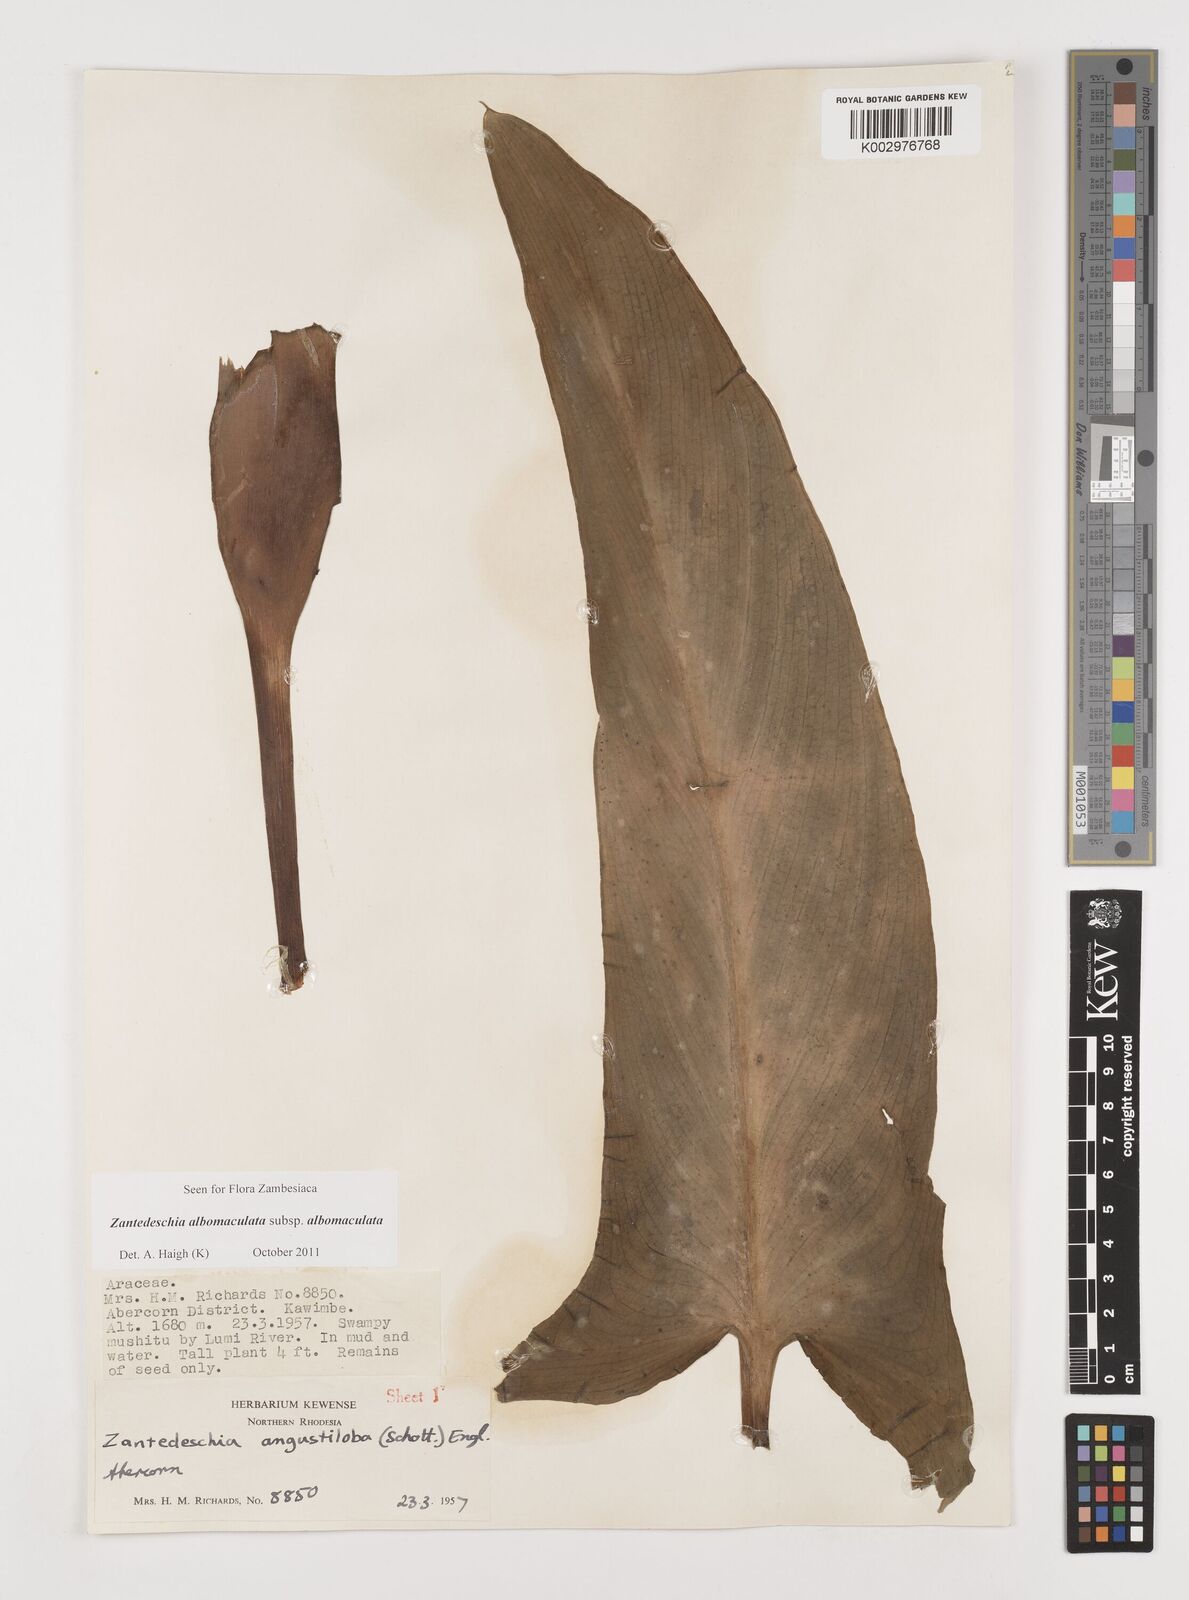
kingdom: Plantae
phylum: Tracheophyta
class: Liliopsida
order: Alismatales
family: Araceae
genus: Zantedeschia
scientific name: Zantedeschia albomaculata
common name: Spotted calla lily
